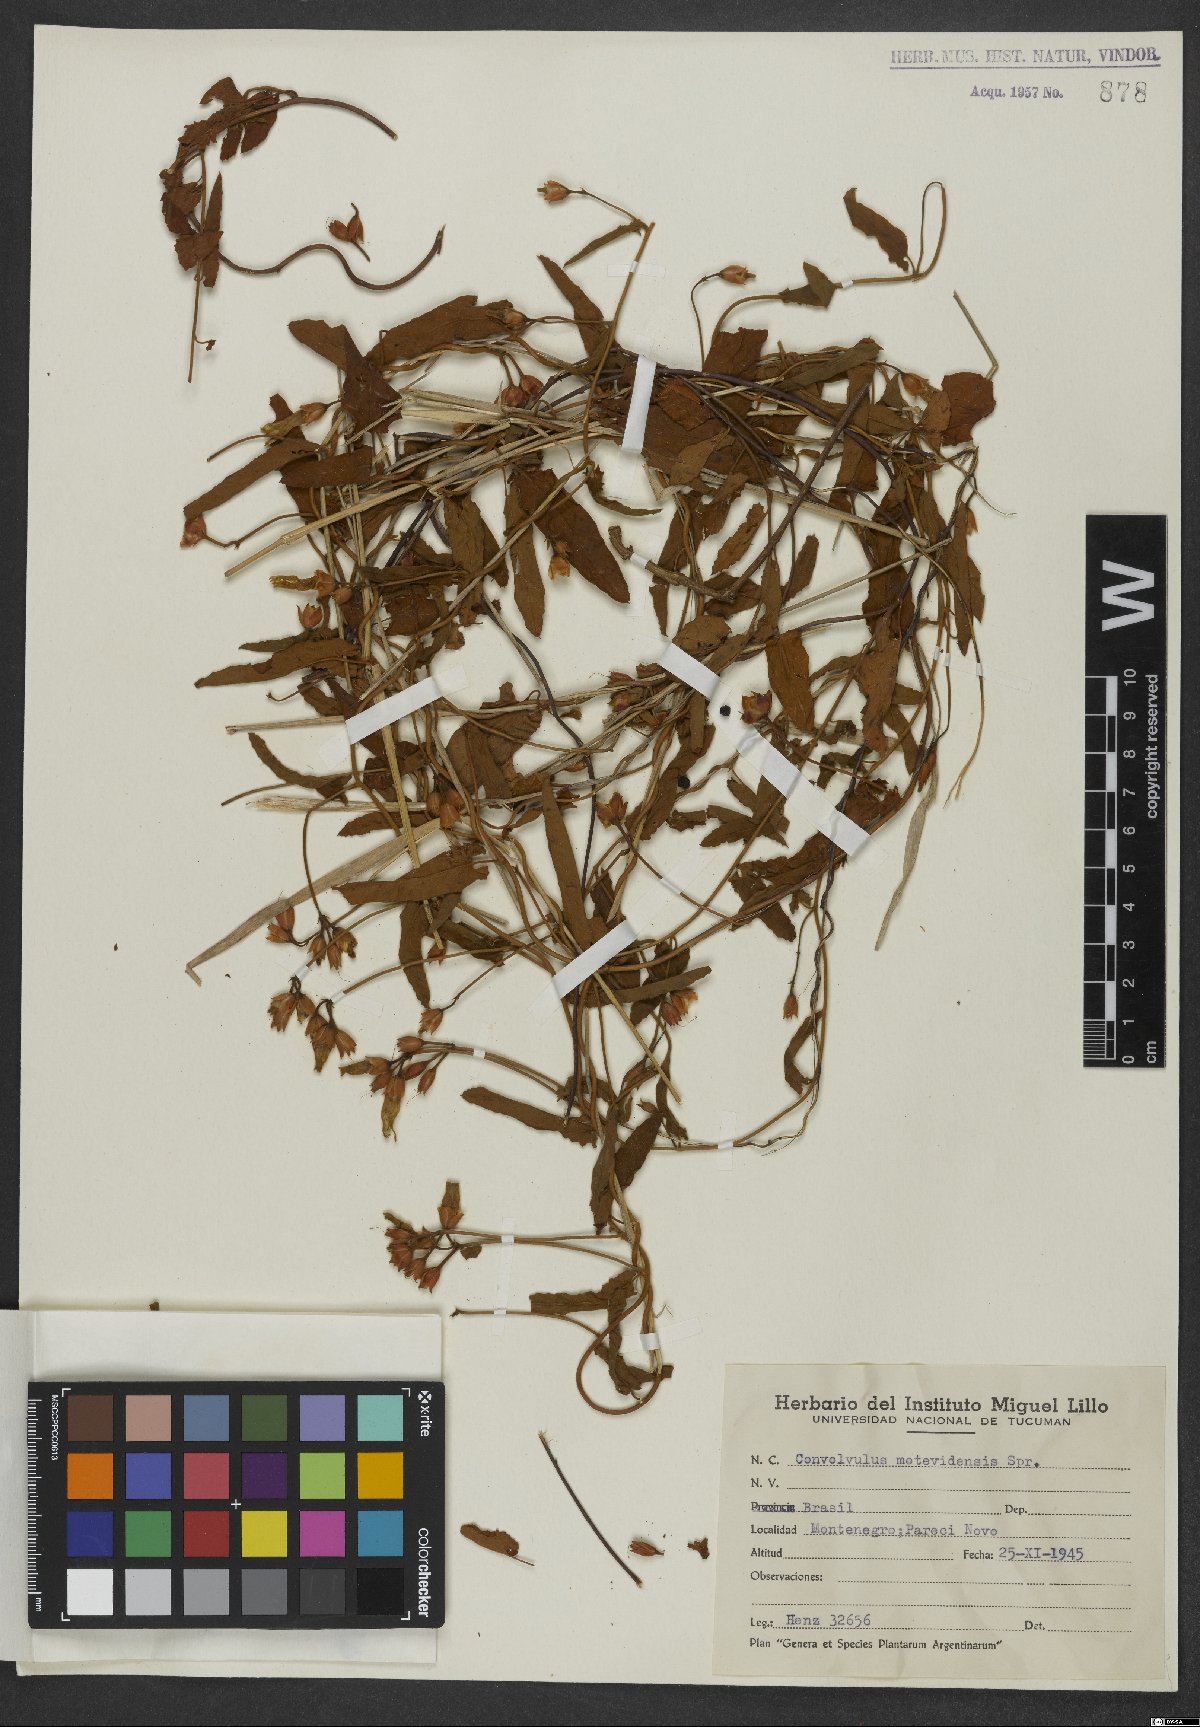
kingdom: Plantae
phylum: Tracheophyta
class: Magnoliopsida
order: Solanales
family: Convolvulaceae
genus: Convolvulus
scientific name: Convolvulus crenatifolius
